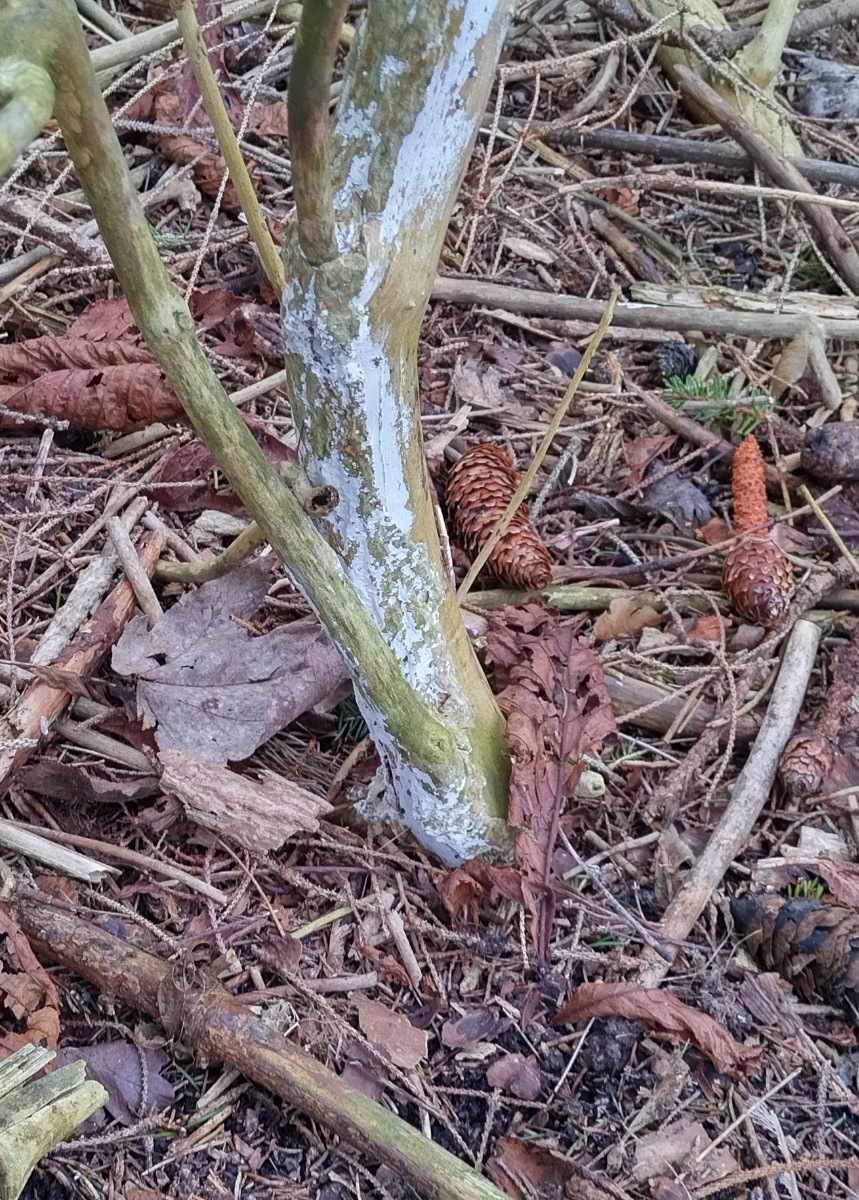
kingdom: Fungi
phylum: Basidiomycota
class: Agaricomycetes
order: Corticiales
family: Corticiaceae
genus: Lyomyces
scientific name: Lyomyces sambuci
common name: almindelig hyldehinde
